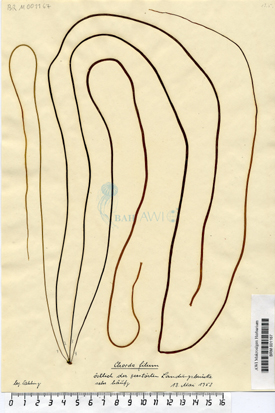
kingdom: Chromista
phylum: Ochrophyta
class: Phaeophyceae
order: Laminariales
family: Chordaceae
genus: Chorda
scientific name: Chorda filum
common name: Mermaid's tresses
